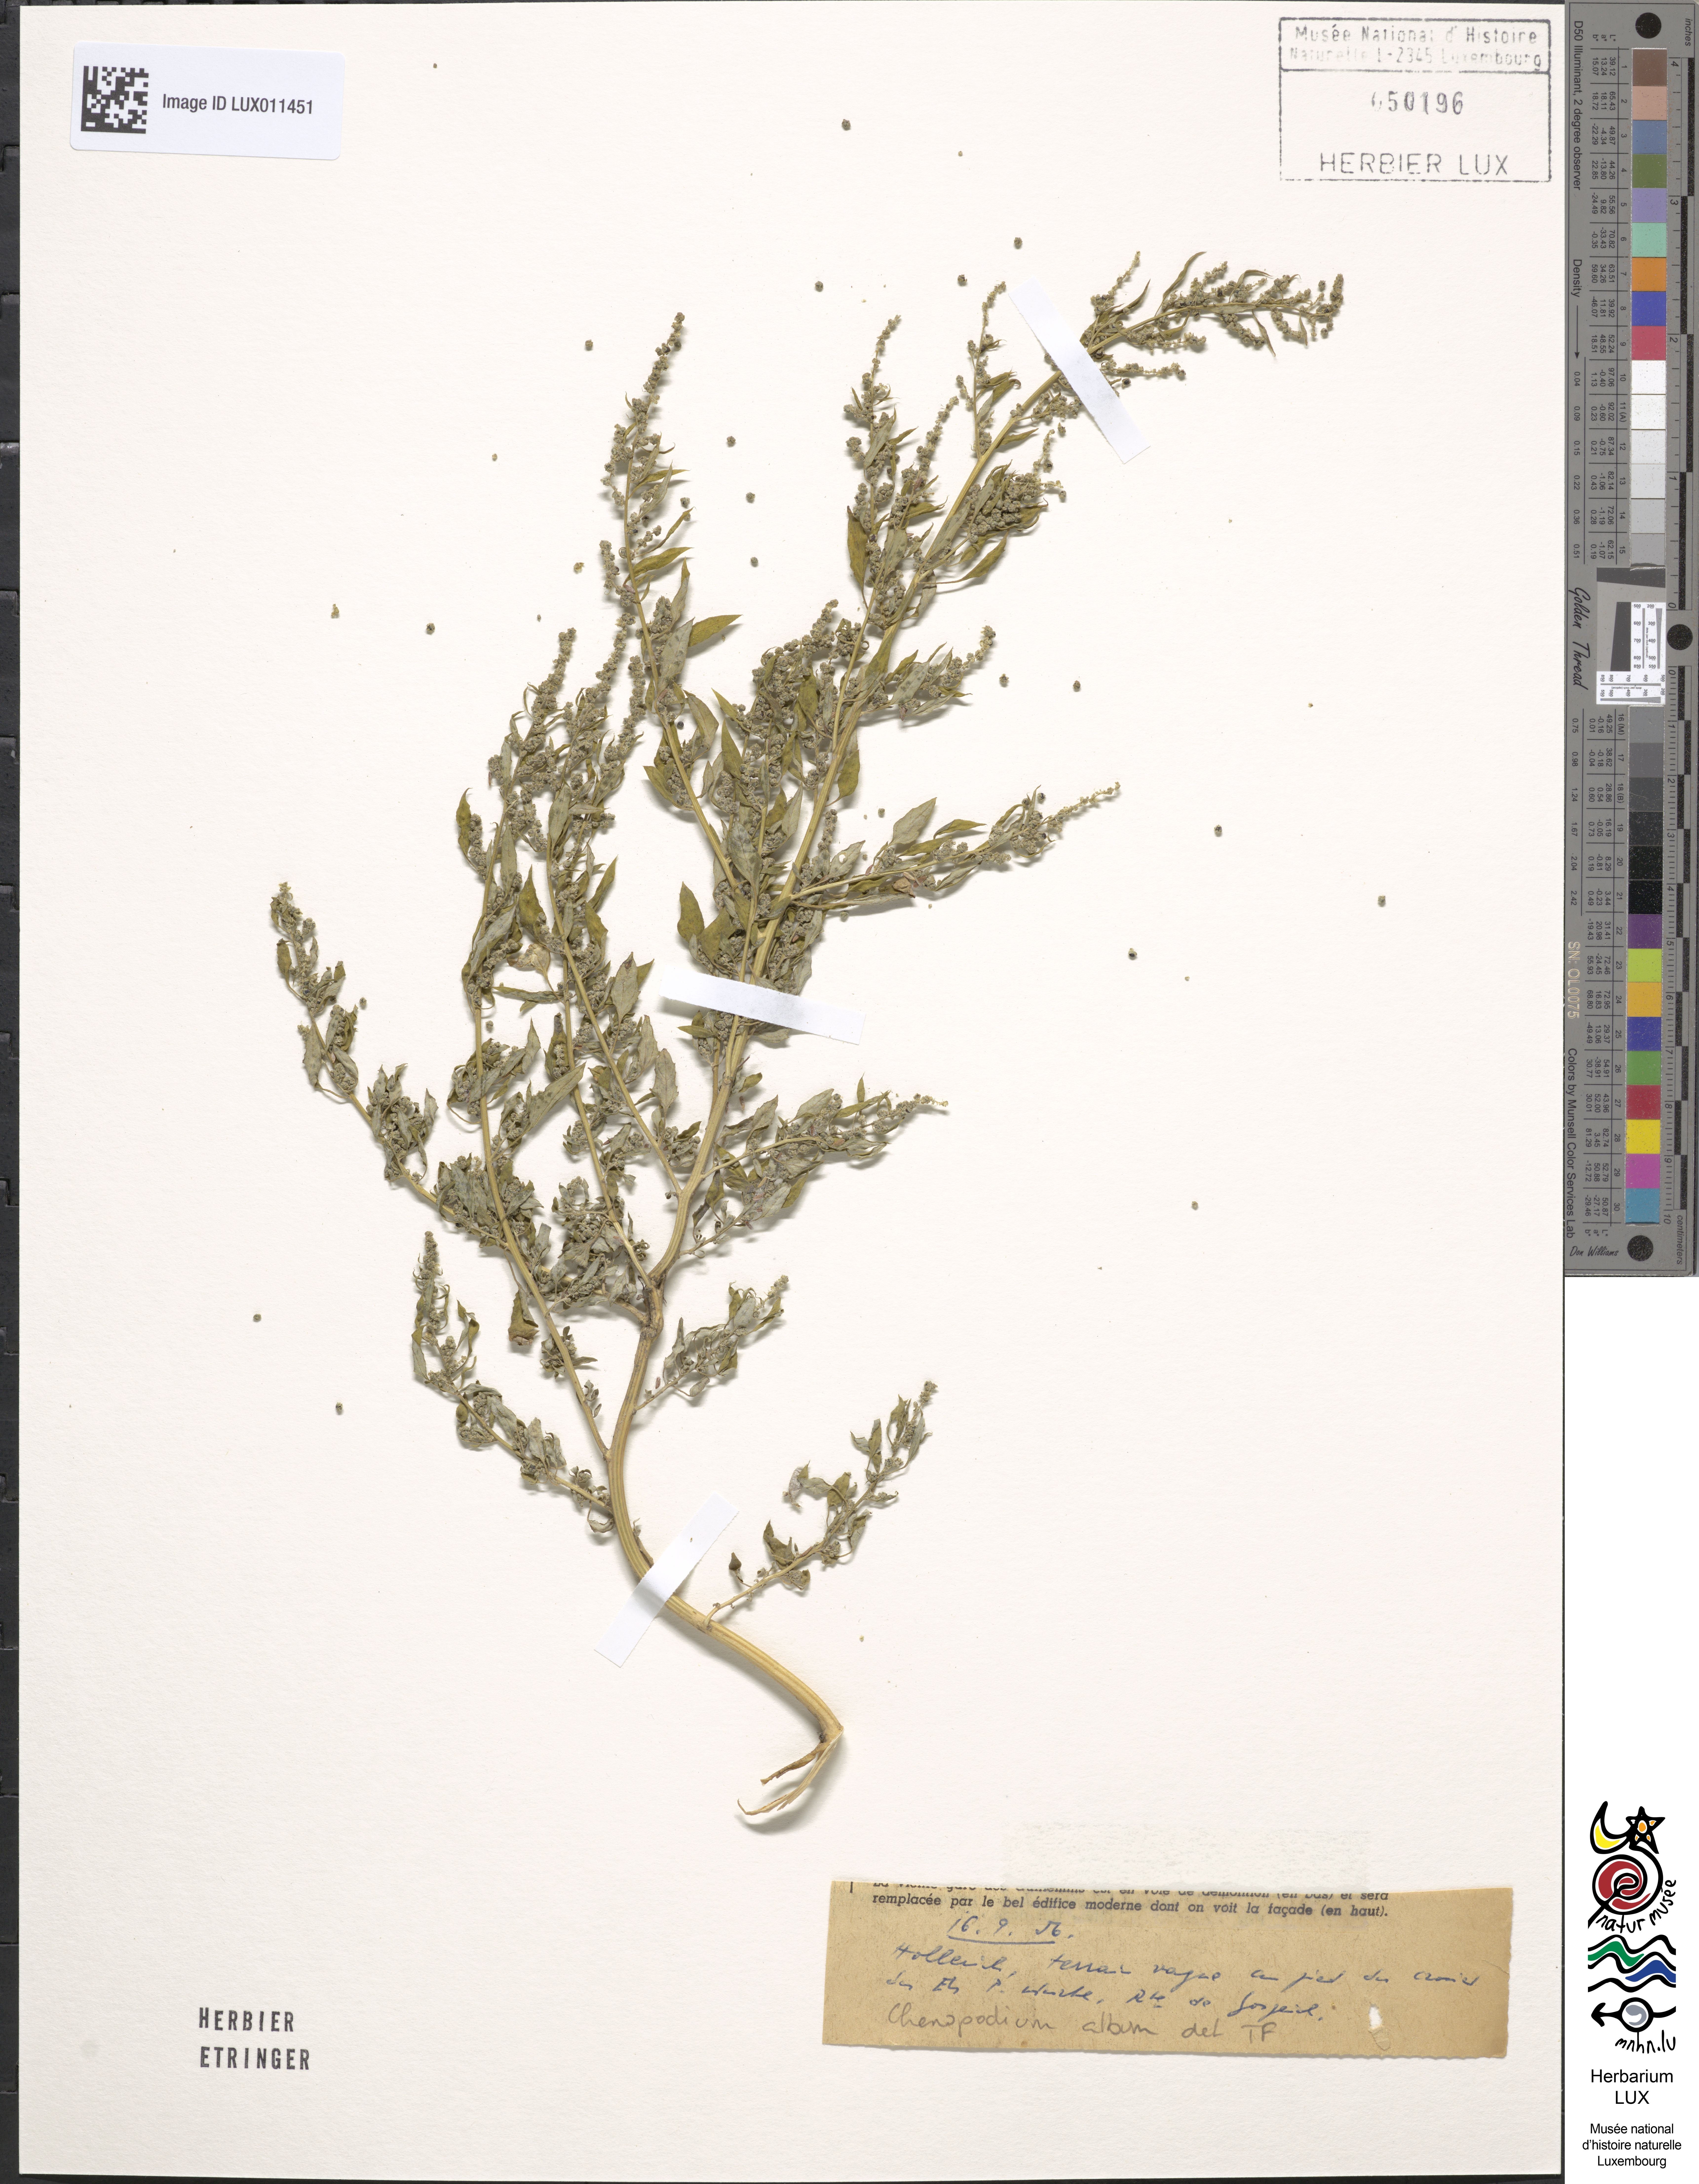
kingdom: Plantae
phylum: Tracheophyta
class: Magnoliopsida
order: Caryophyllales
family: Amaranthaceae
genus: Chenopodium
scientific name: Chenopodium album
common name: Fat-hen
